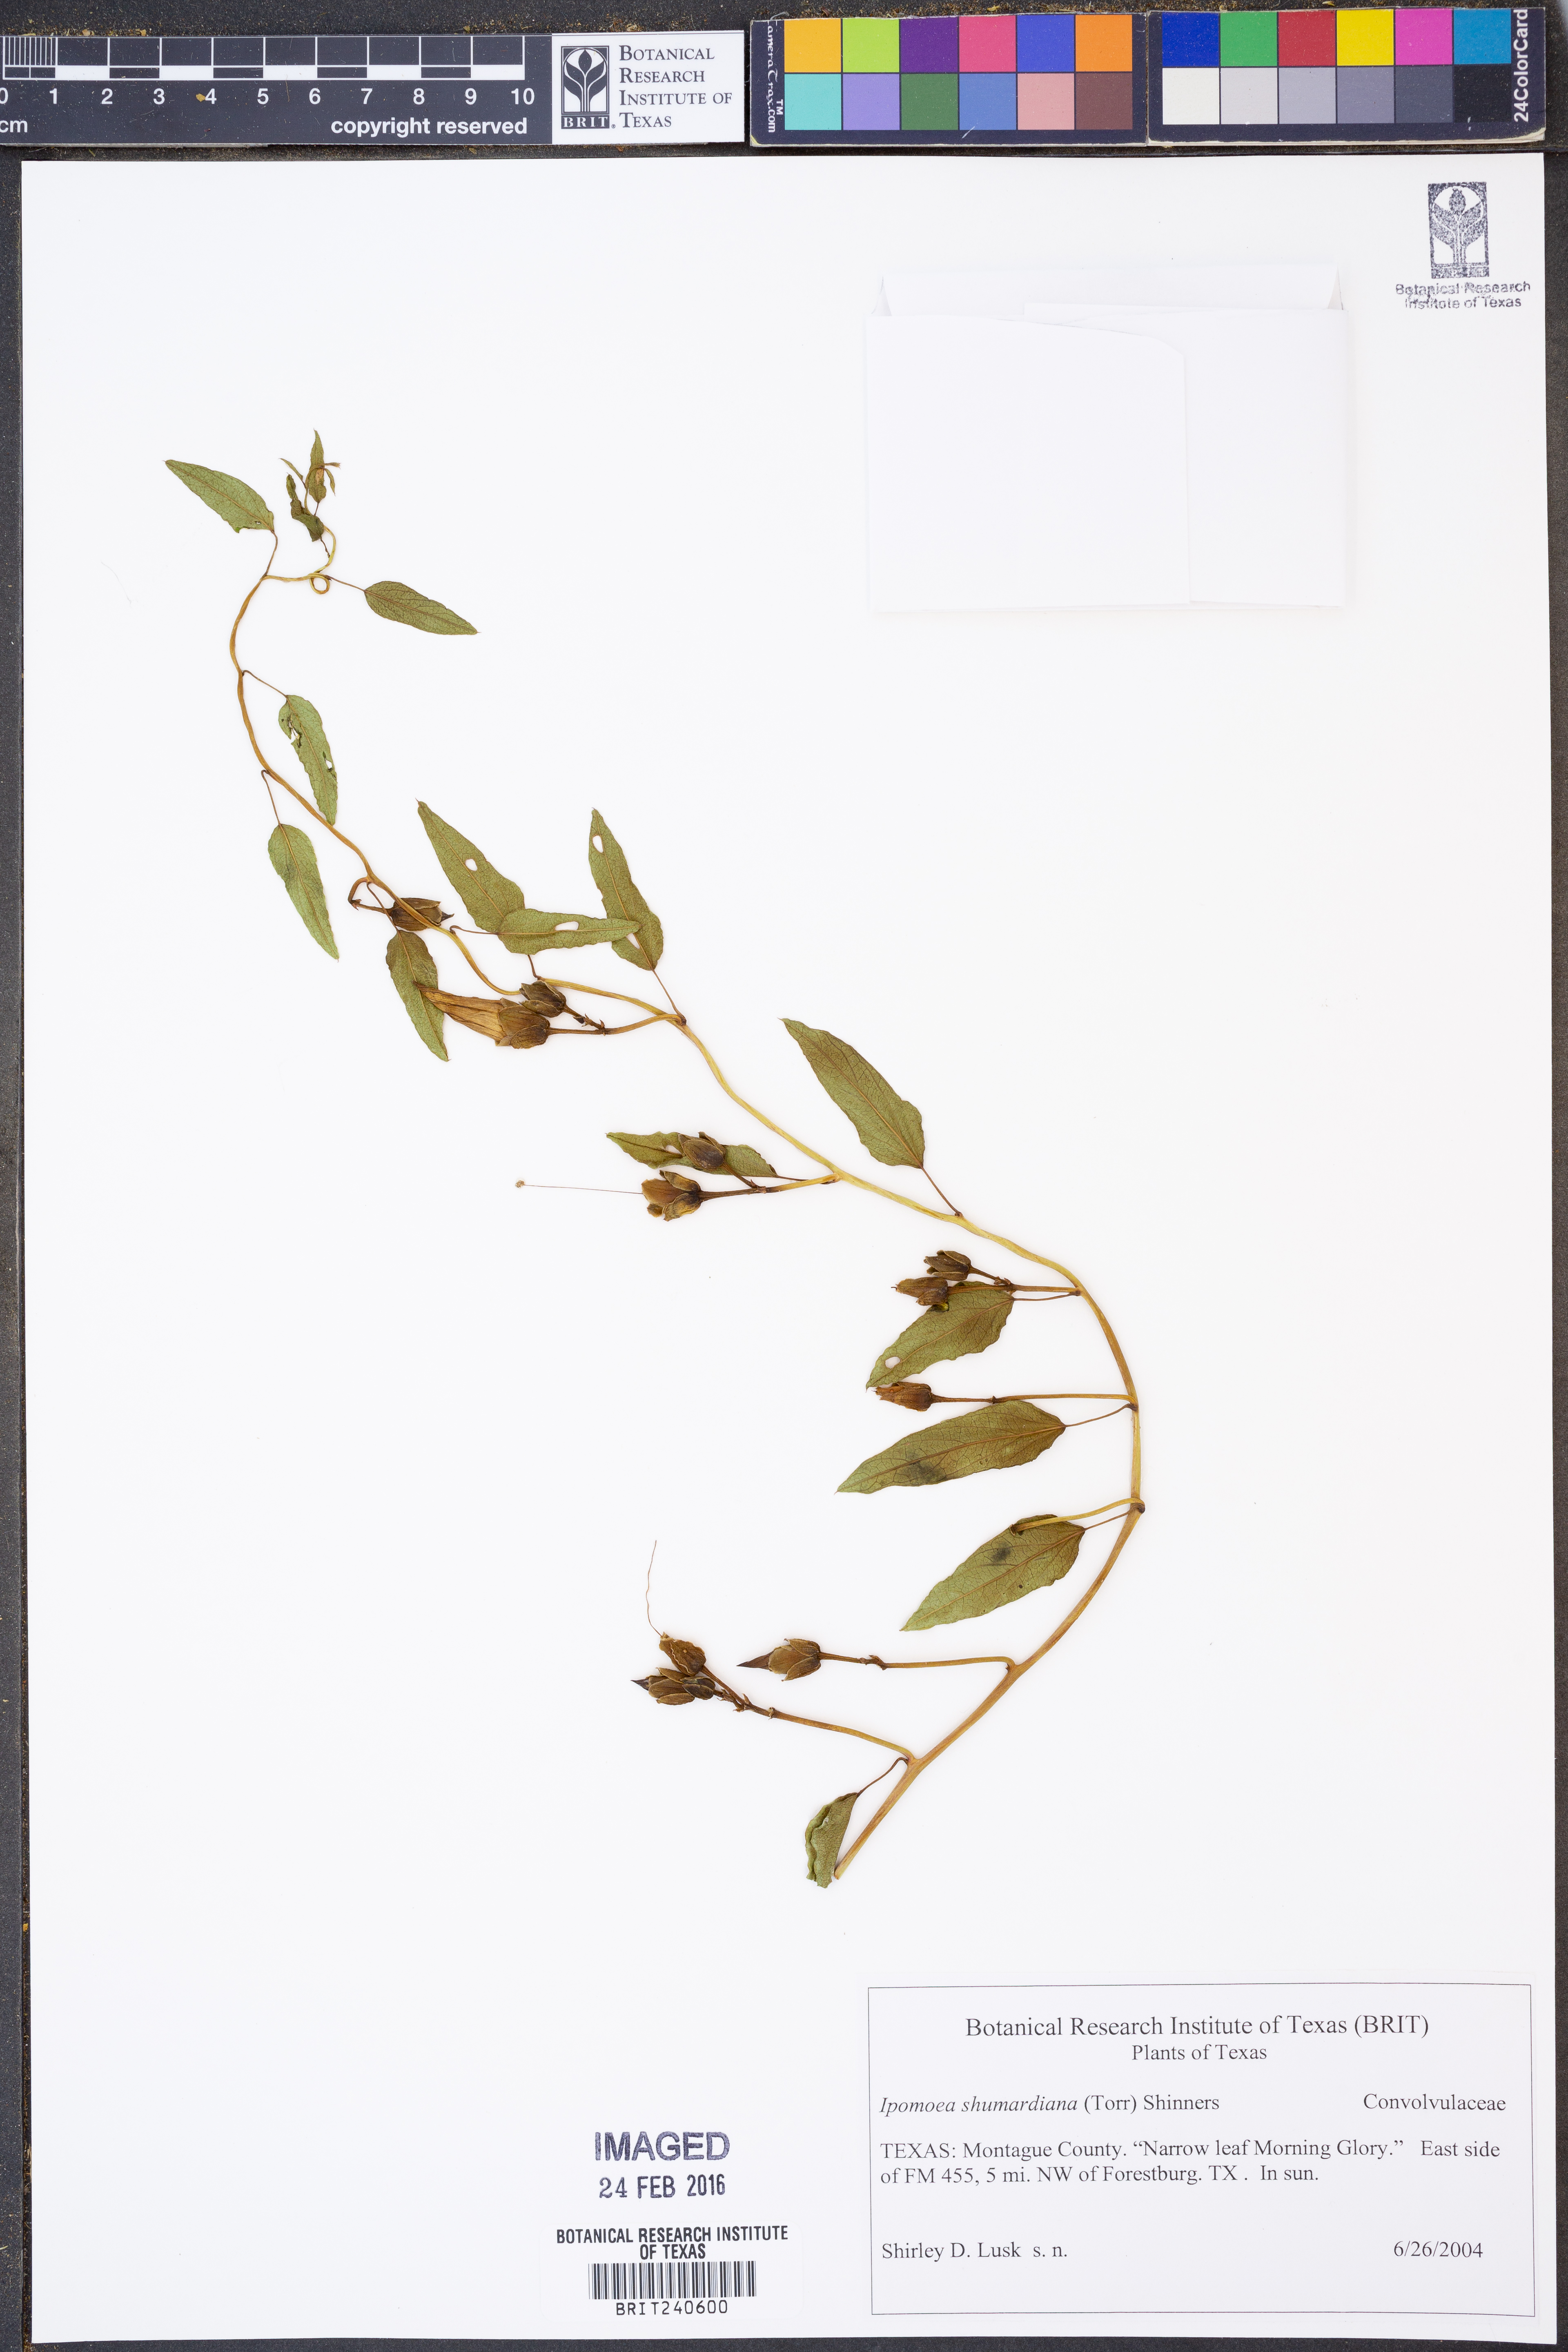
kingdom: Plantae
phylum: Tracheophyta
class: Magnoliopsida
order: Solanales
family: Convolvulaceae
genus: Ipomoea
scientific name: Ipomoea shumardiana
